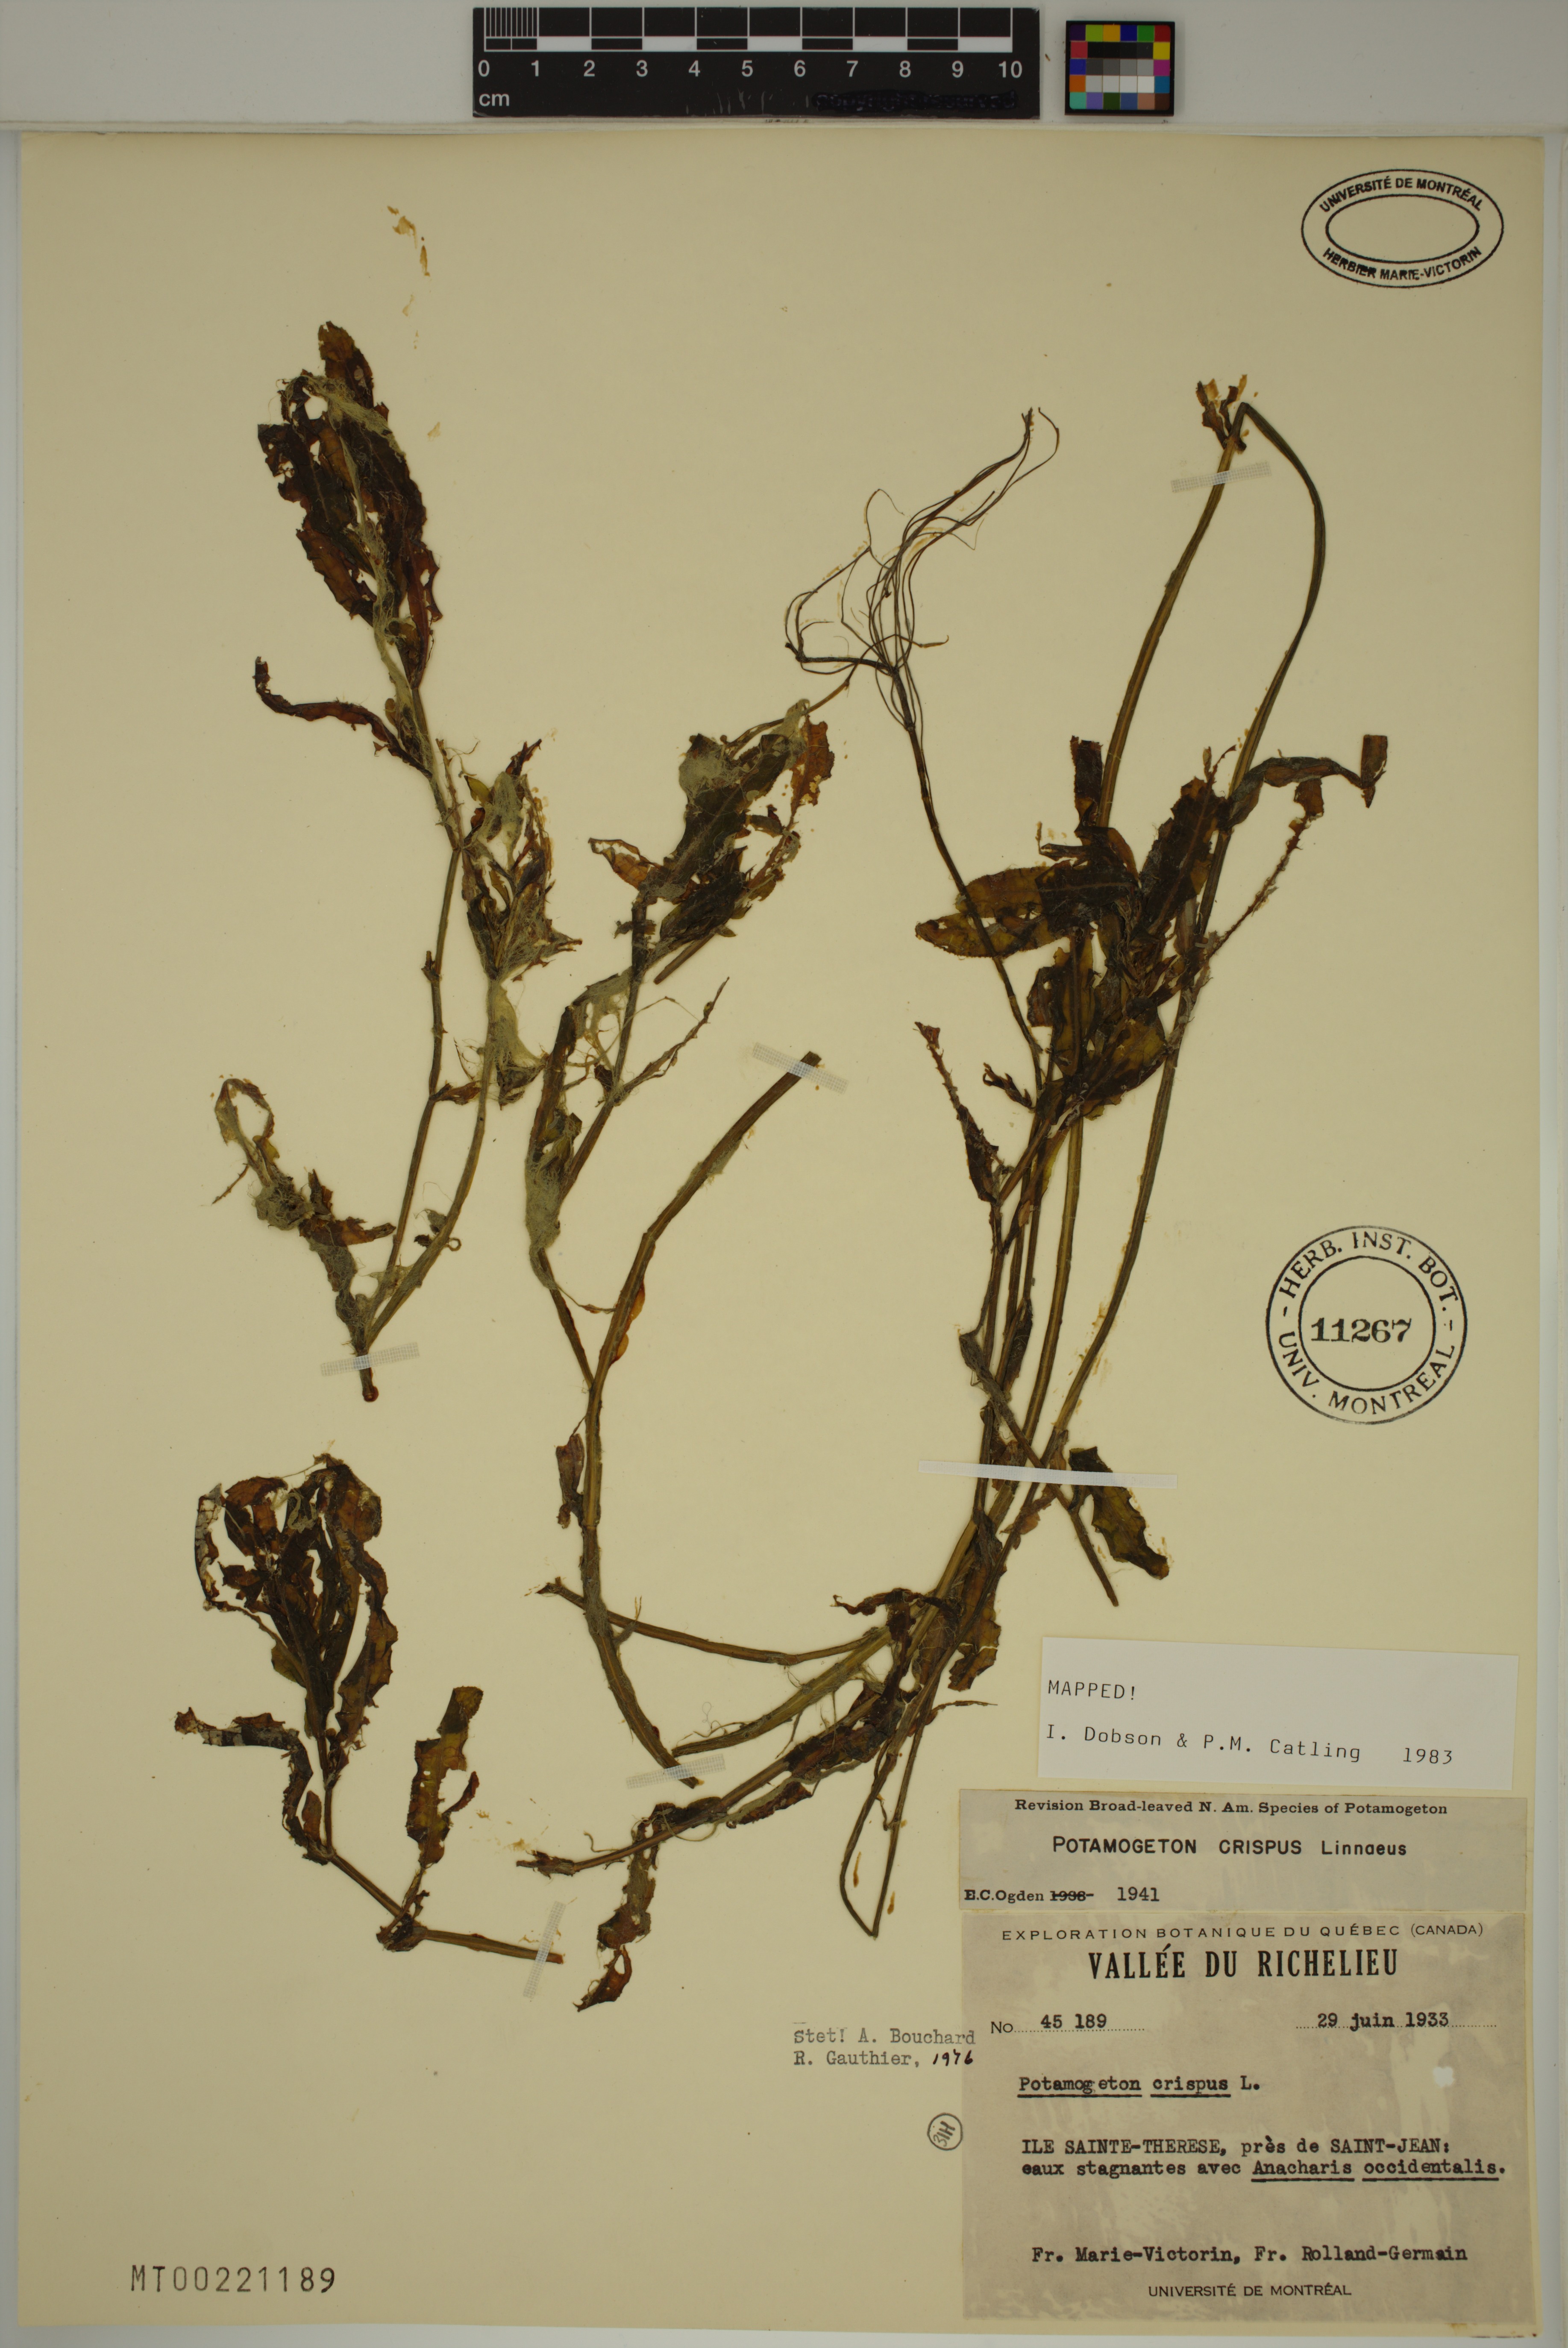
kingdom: Plantae
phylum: Tracheophyta
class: Liliopsida
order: Alismatales
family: Potamogetonaceae
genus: Potamogeton
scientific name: Potamogeton crispus
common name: Curled pondweed
